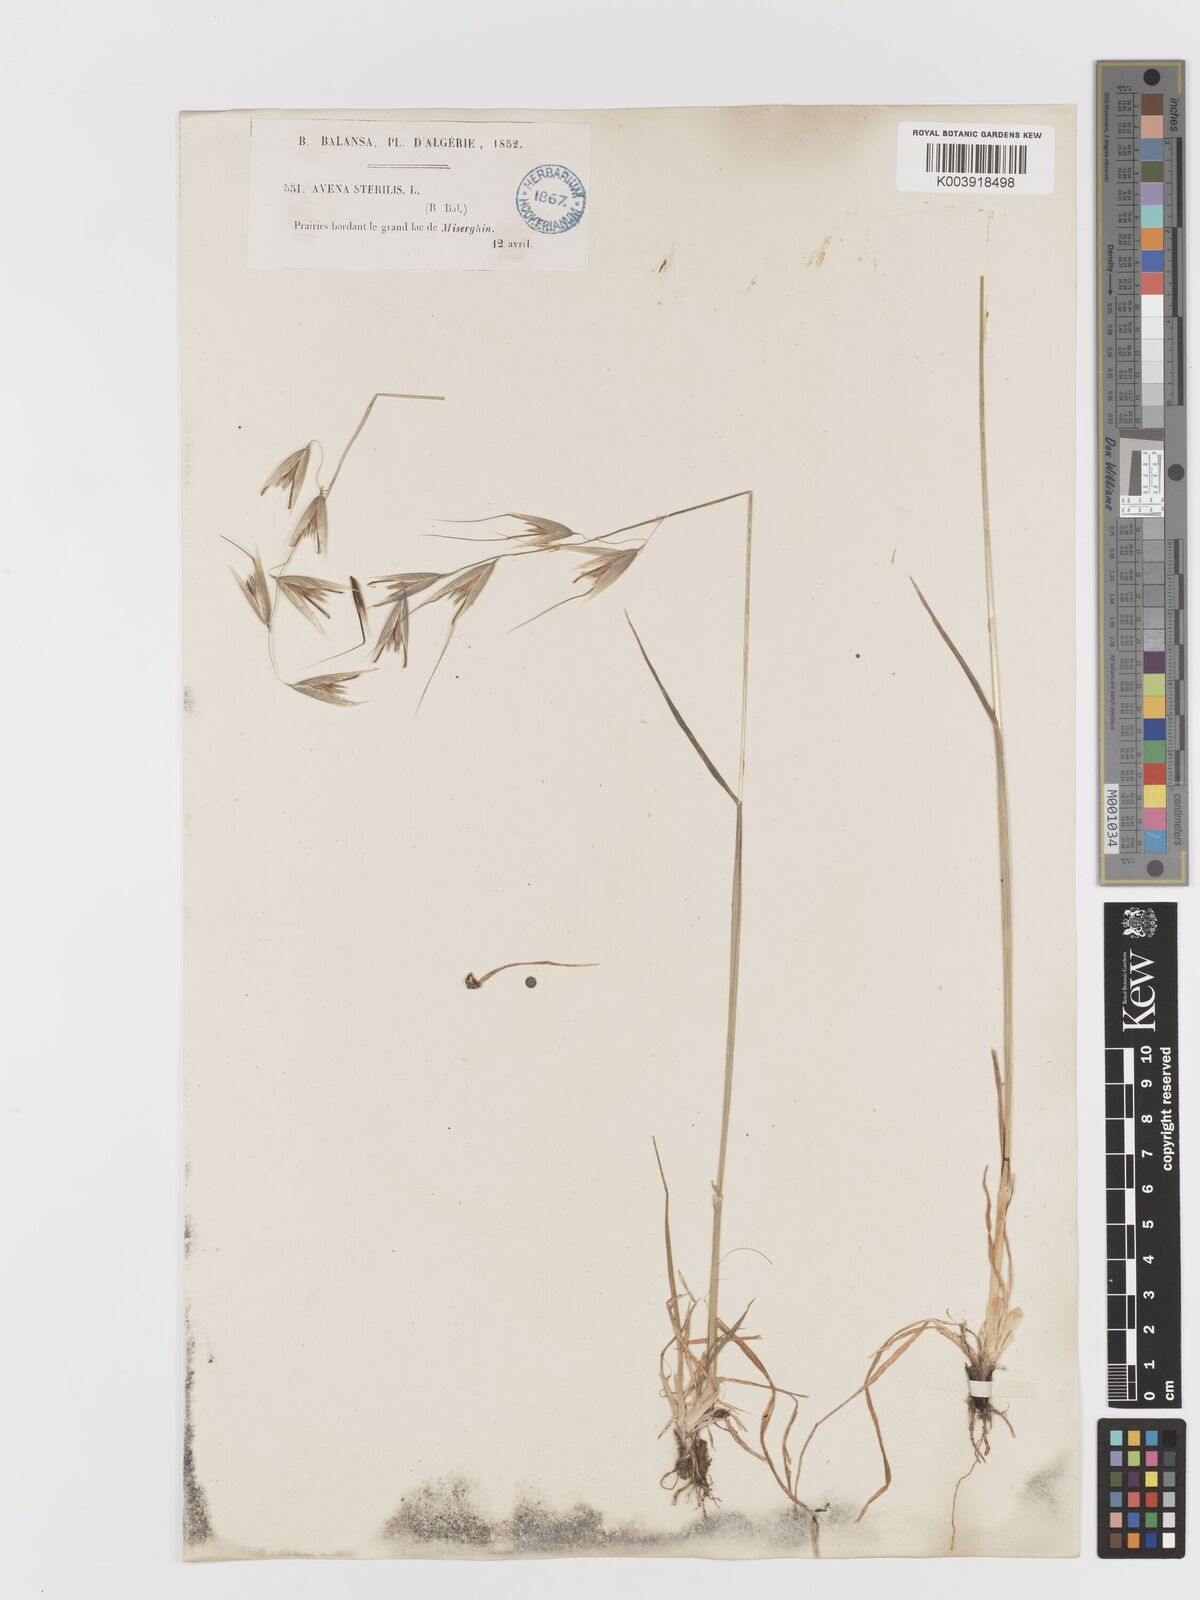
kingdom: Plantae
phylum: Tracheophyta
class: Liliopsida
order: Poales
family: Poaceae
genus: Avena
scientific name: Avena sterilis
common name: Animated oat
